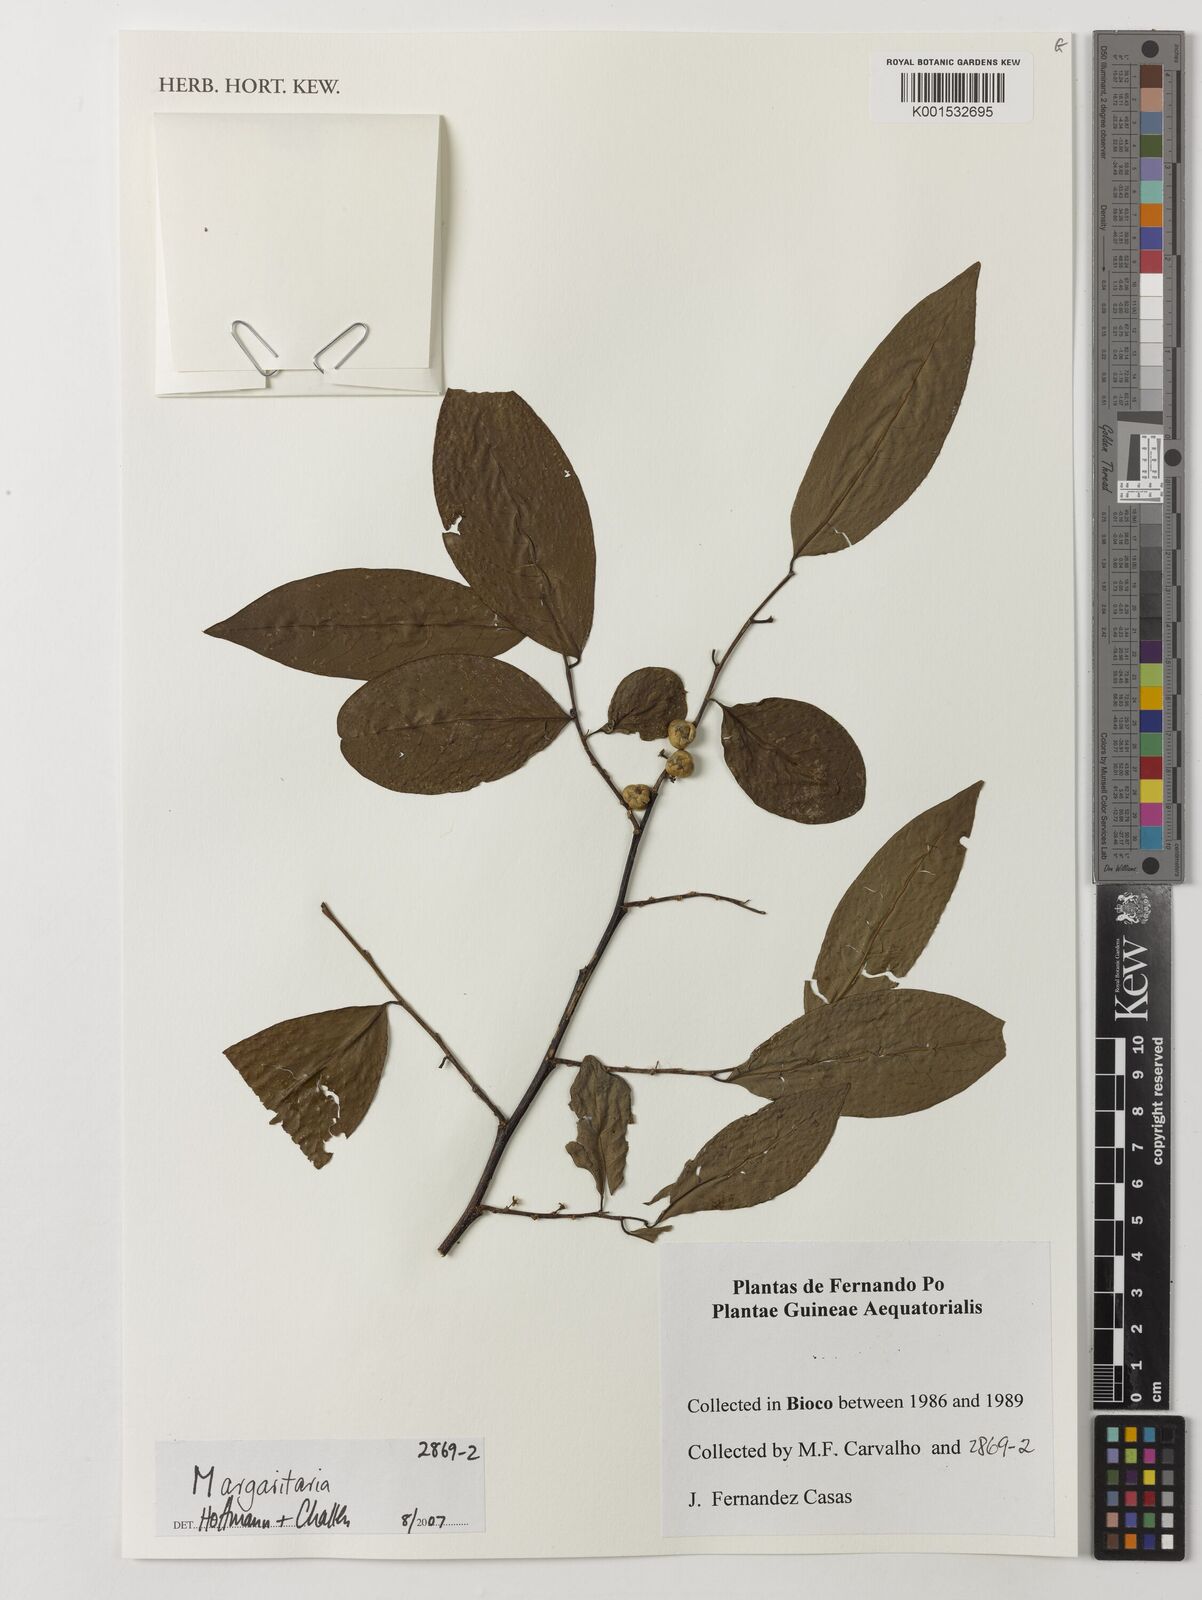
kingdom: Plantae
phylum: Tracheophyta
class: Magnoliopsida
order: Malpighiales
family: Phyllanthaceae
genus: Margaritaria
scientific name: Margaritaria
